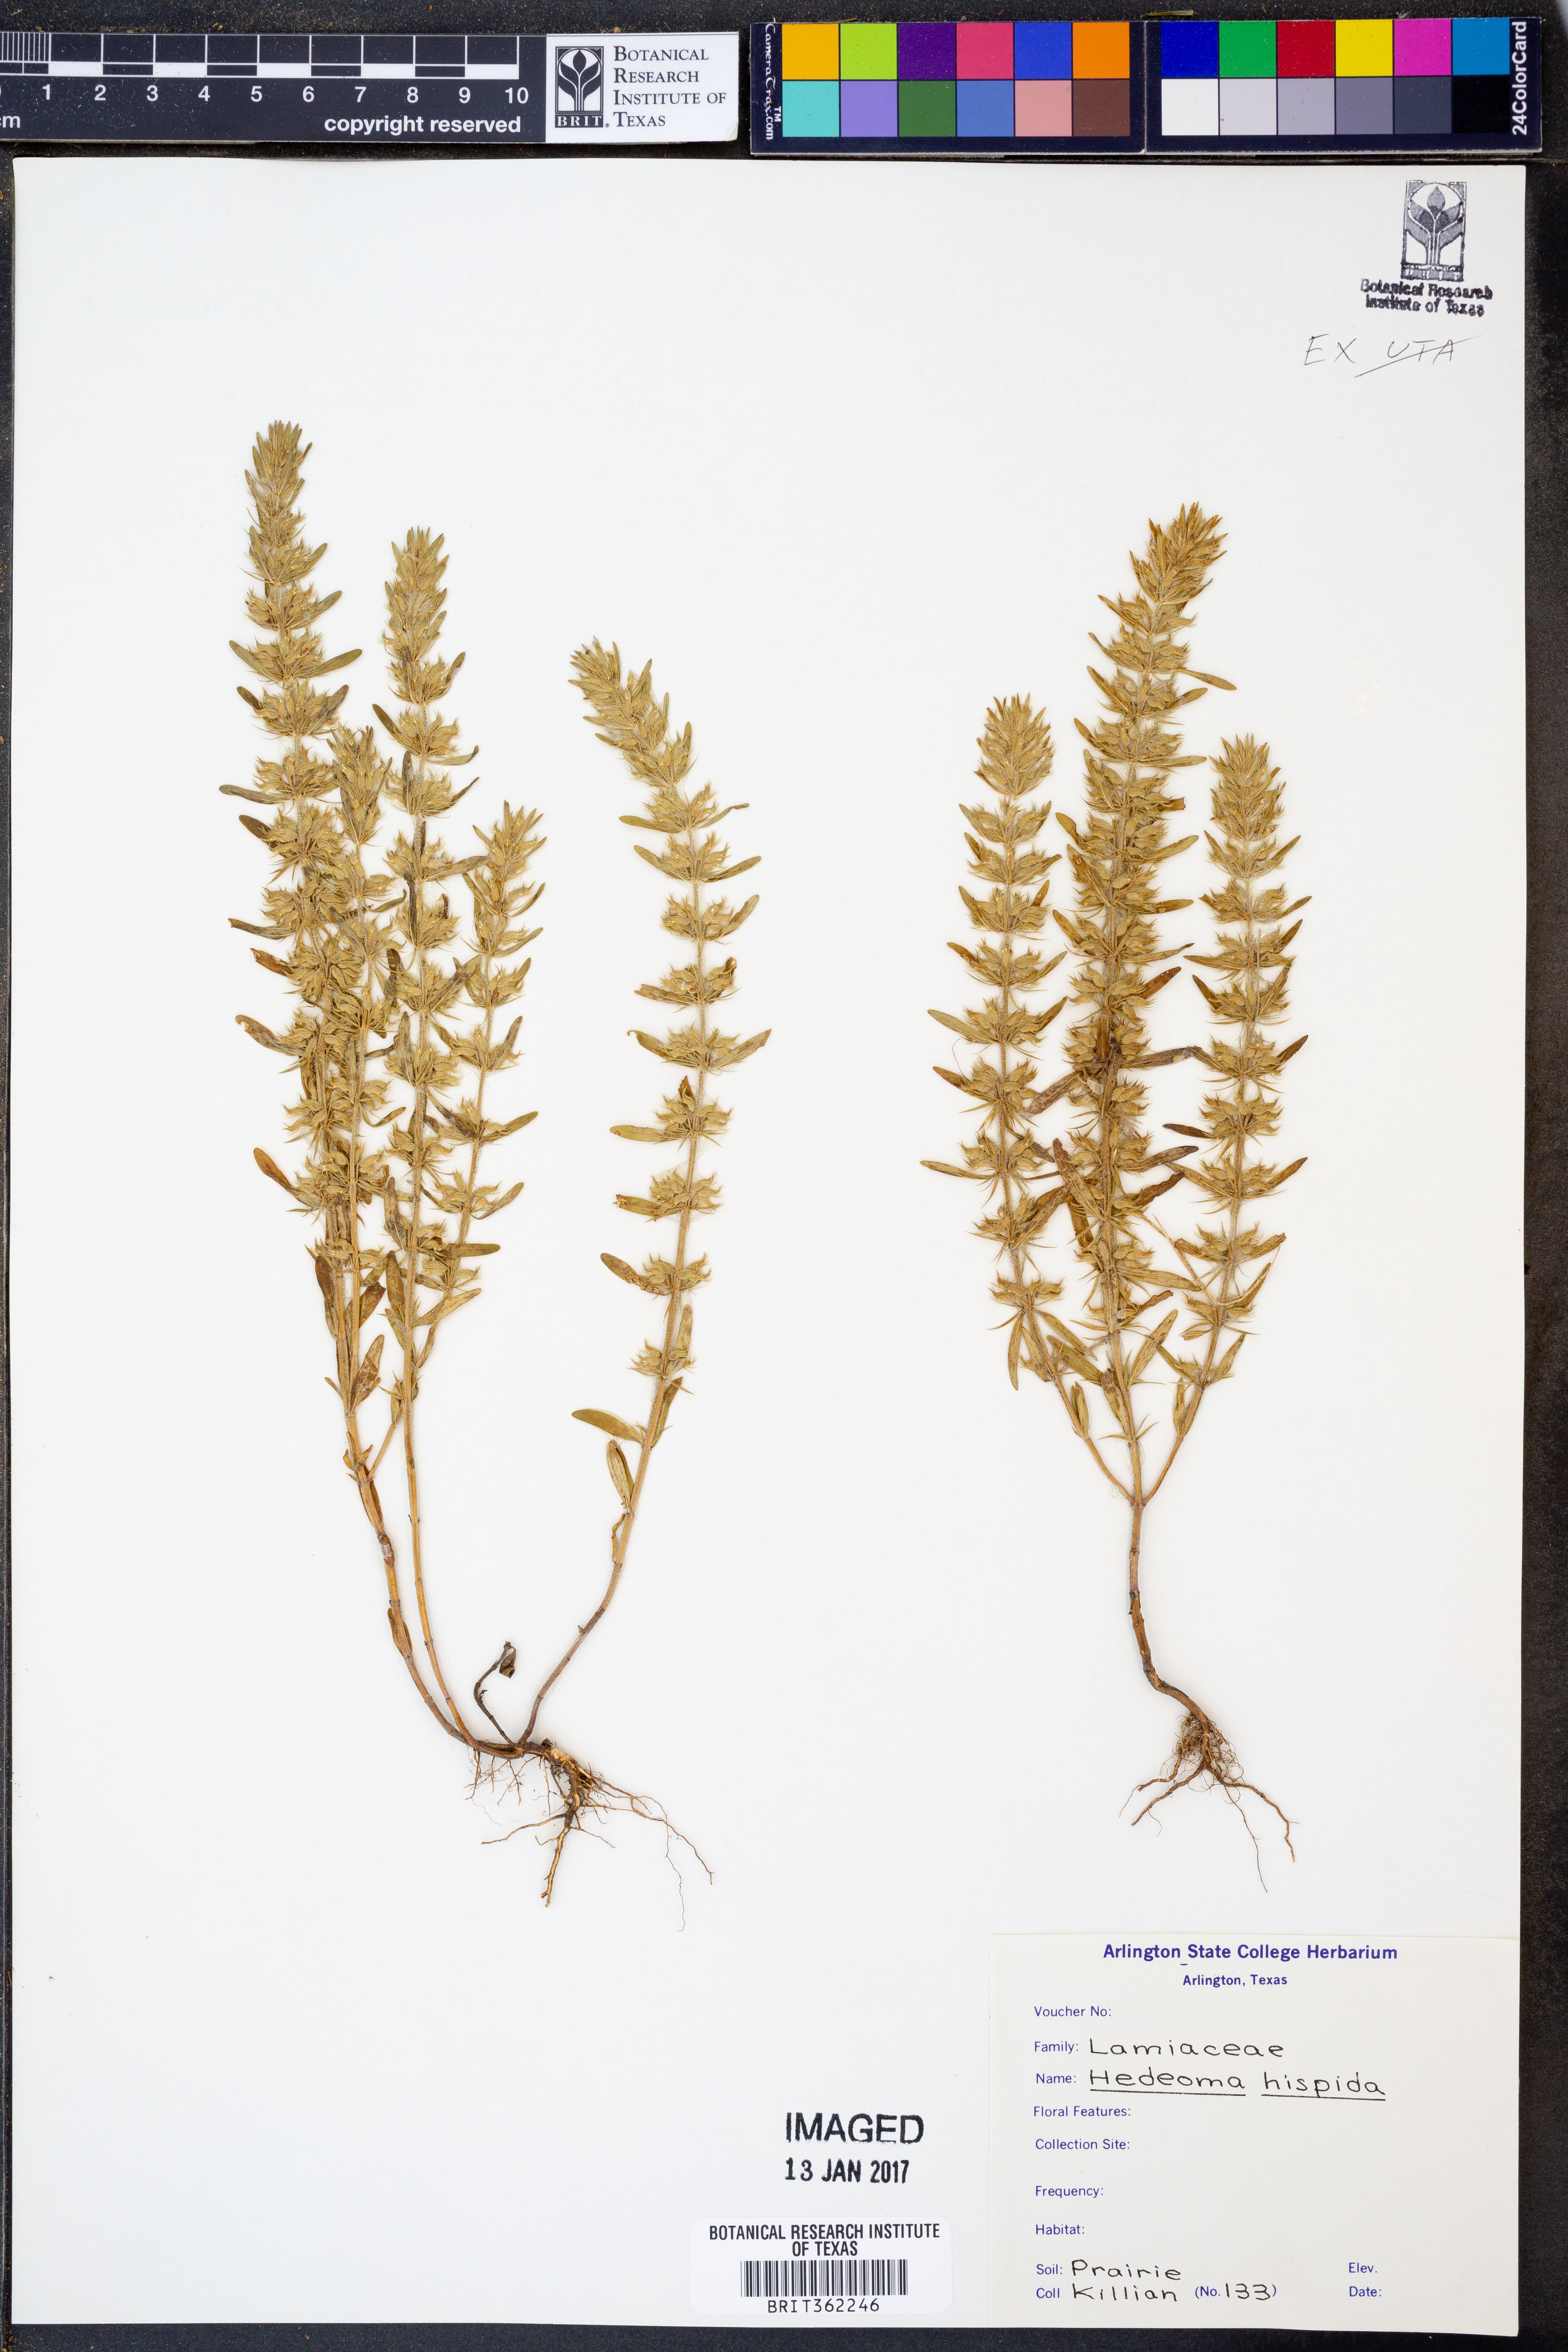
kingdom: Plantae
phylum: Tracheophyta
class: Magnoliopsida
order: Lamiales
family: Lamiaceae
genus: Hedeoma
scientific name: Hedeoma hispida
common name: Mock pennyroyal
